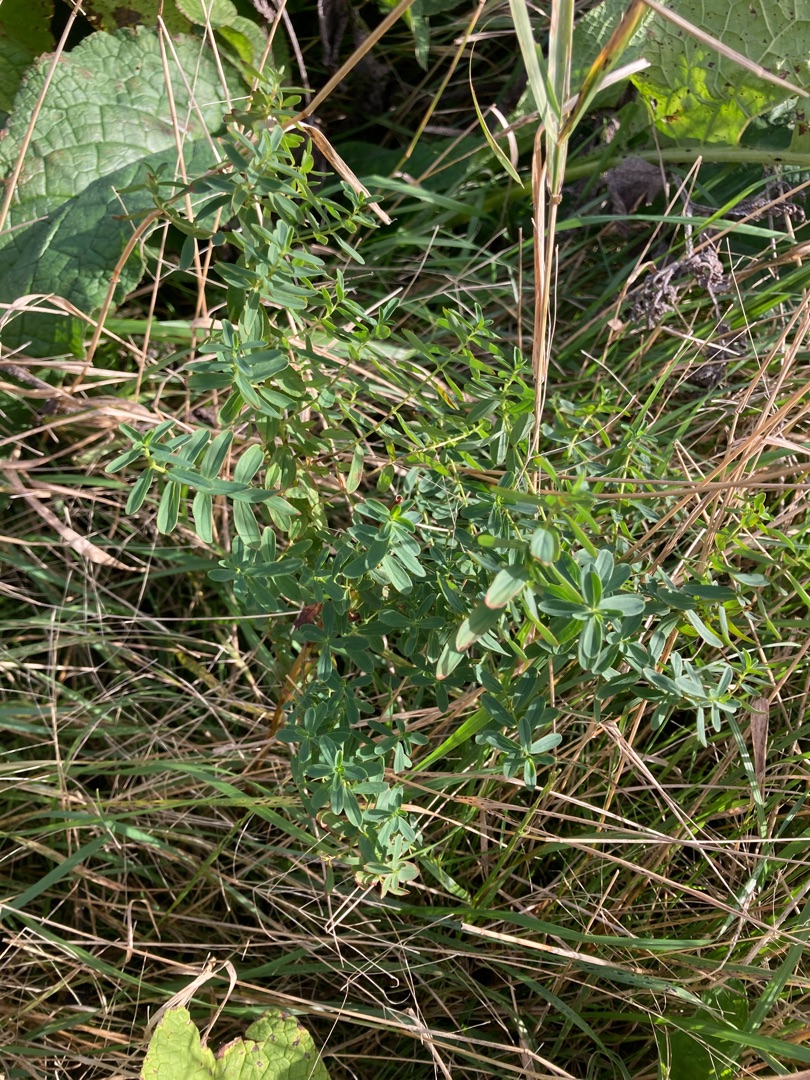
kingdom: Plantae
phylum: Tracheophyta
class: Magnoliopsida
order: Malpighiales
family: Hypericaceae
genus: Hypericum
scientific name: Hypericum
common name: Perikonslægten
